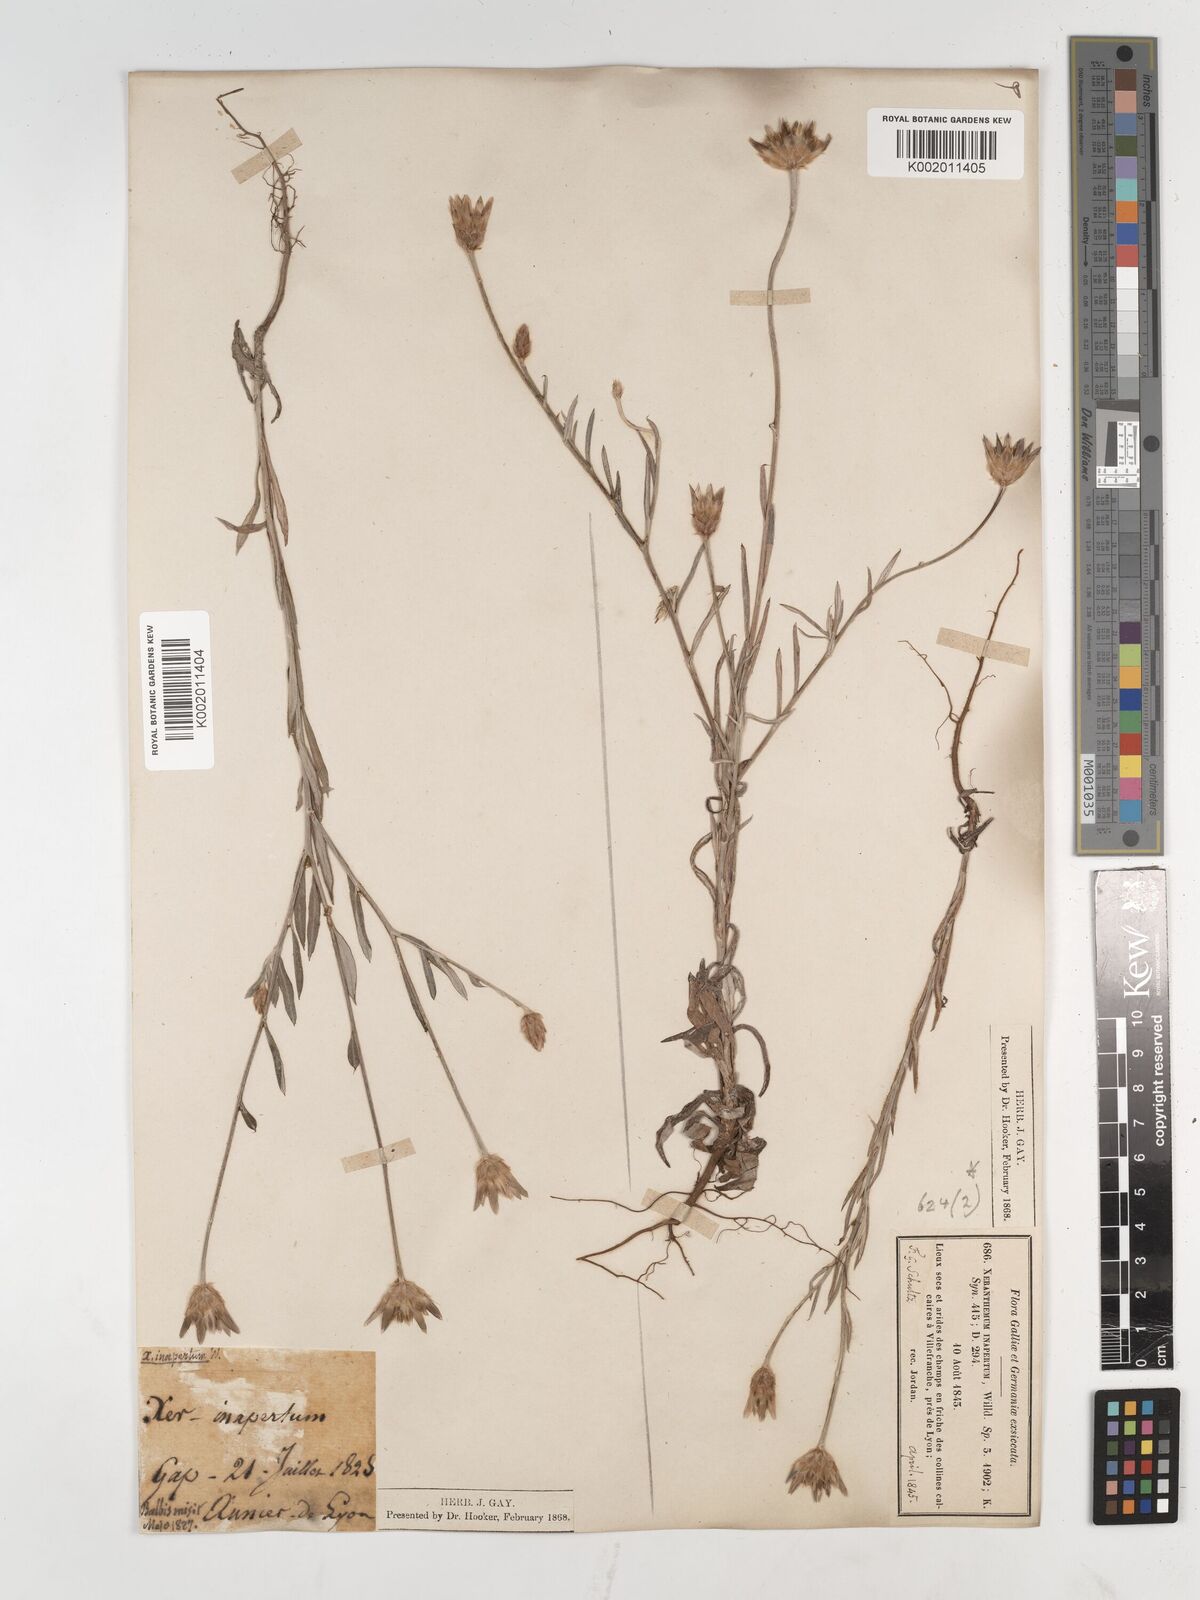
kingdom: Plantae
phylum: Tracheophyta
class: Magnoliopsida
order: Asterales
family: Asteraceae
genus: Xeranthemum
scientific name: Xeranthemum inapertum
